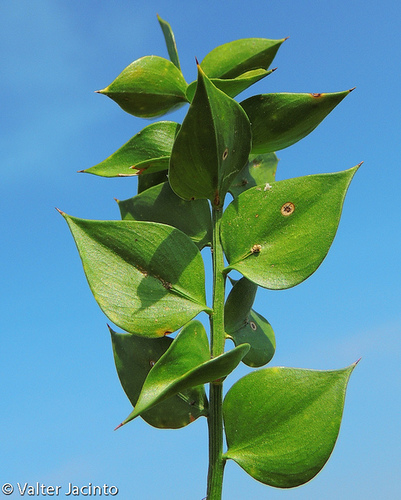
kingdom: Plantae
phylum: Tracheophyta
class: Liliopsida
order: Asparagales
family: Asparagaceae
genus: Ruscus
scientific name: Ruscus aculeatus
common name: Butcher's-broom
